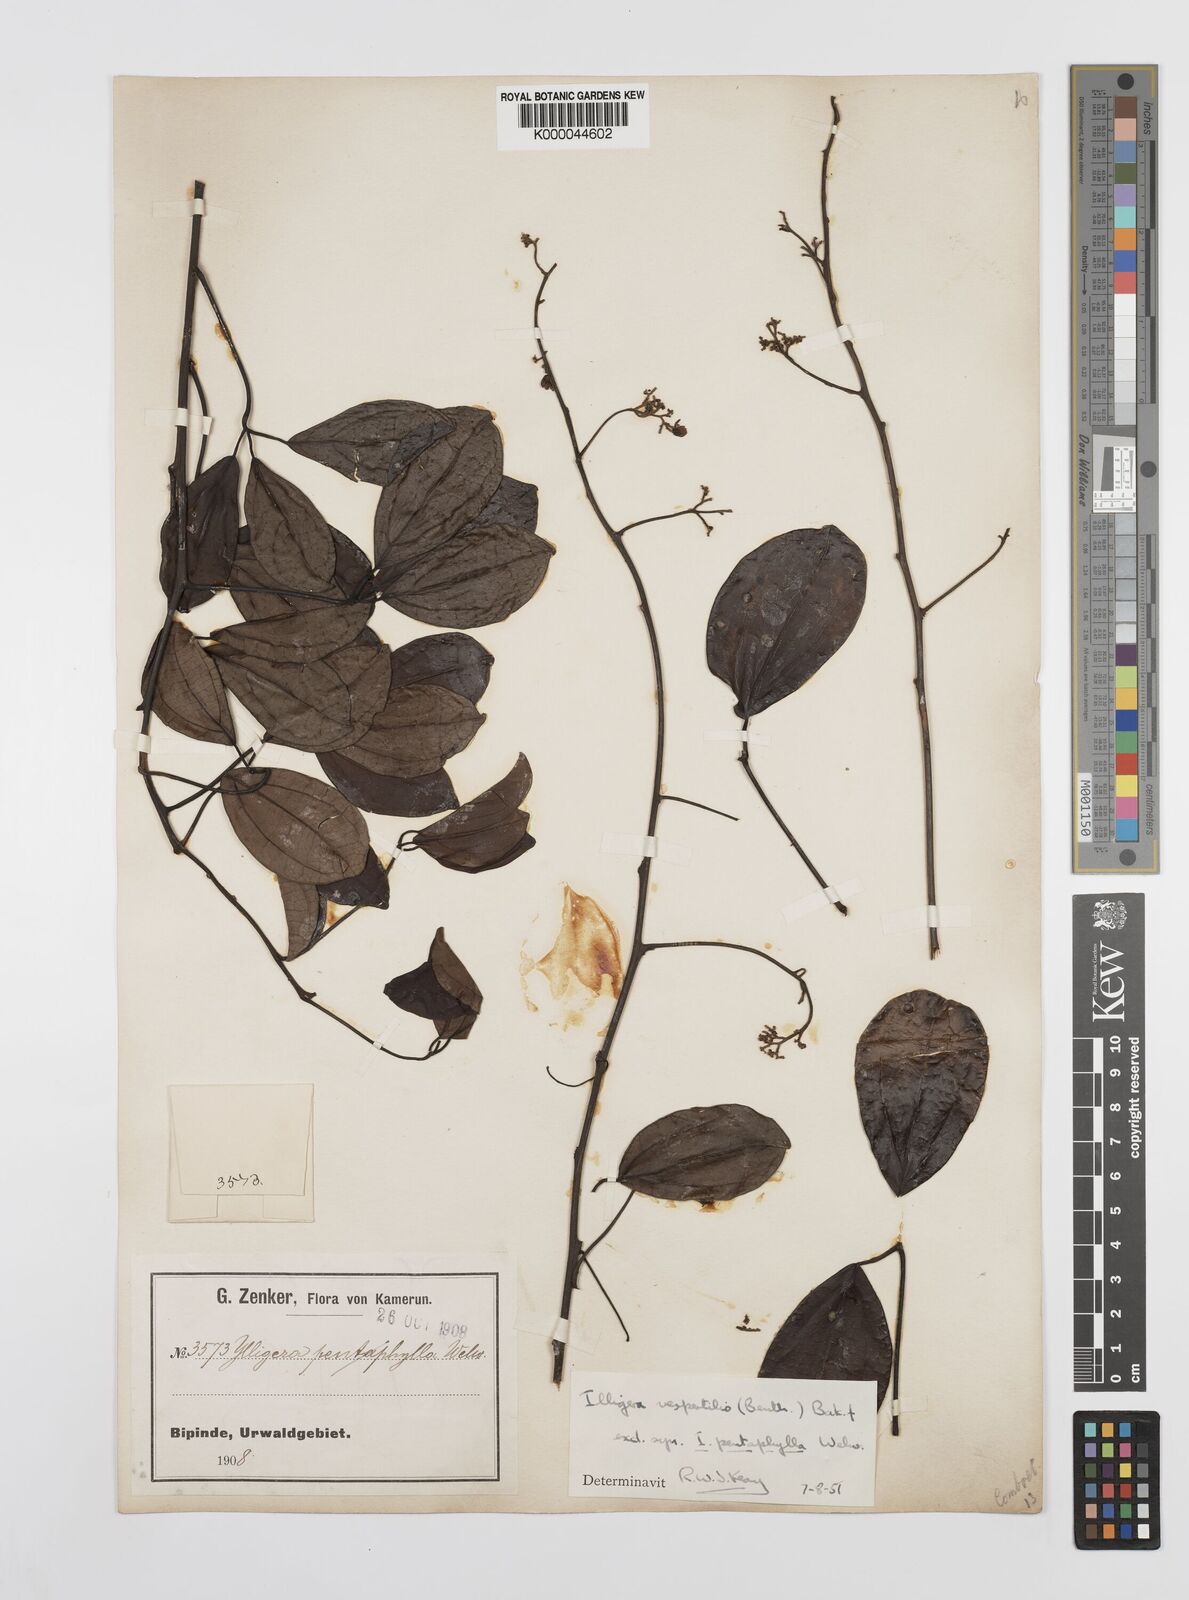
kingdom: Plantae
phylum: Tracheophyta
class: Magnoliopsida
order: Laurales
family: Hernandiaceae
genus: Illigera
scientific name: Illigera
